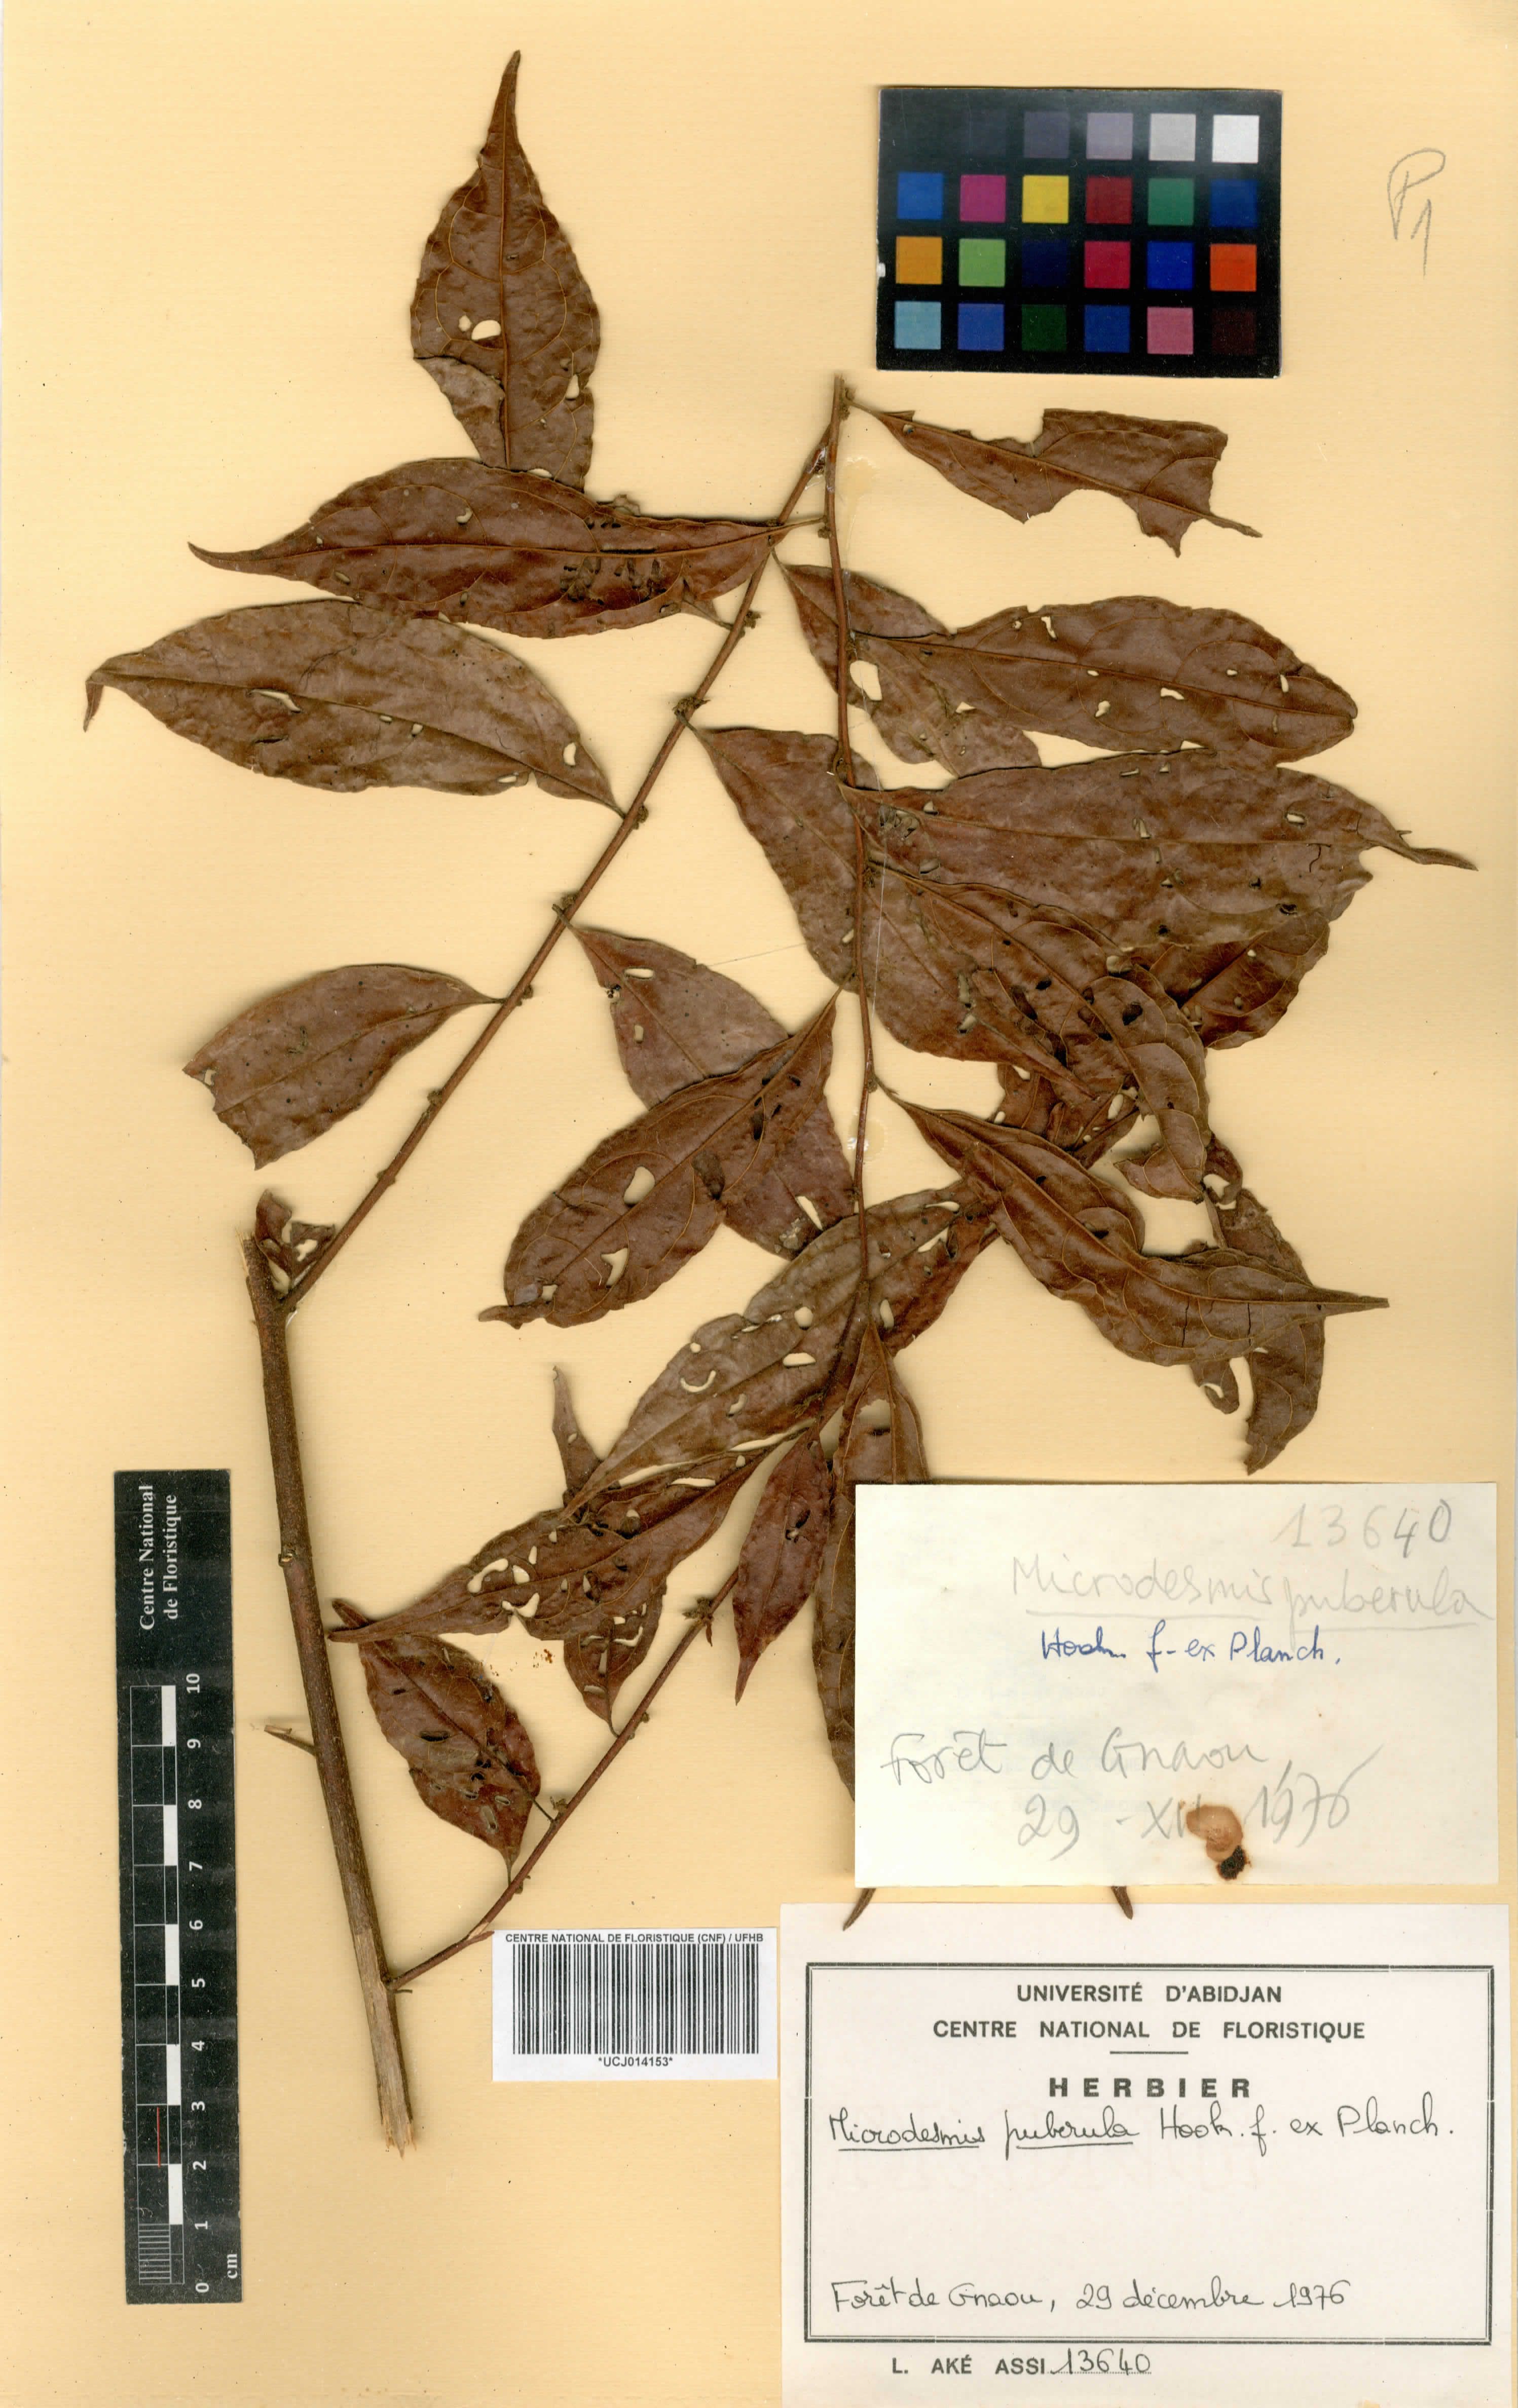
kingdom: Plantae
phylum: Tracheophyta
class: Magnoliopsida
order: Malpighiales
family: Pandaceae
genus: Microdesmis
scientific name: Microdesmis puberula
